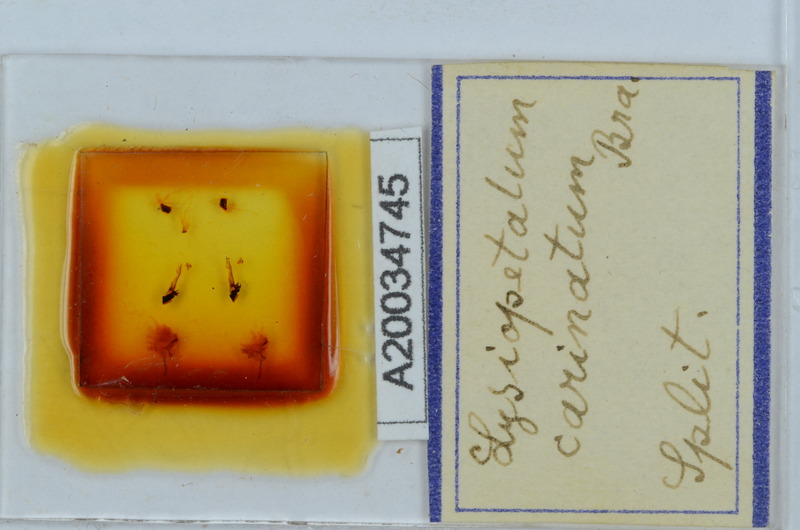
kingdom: Animalia
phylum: Arthropoda
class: Diplopoda
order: Callipodida
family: Schizopetalidae
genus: Acanthopetalum
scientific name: Acanthopetalum carinatum
